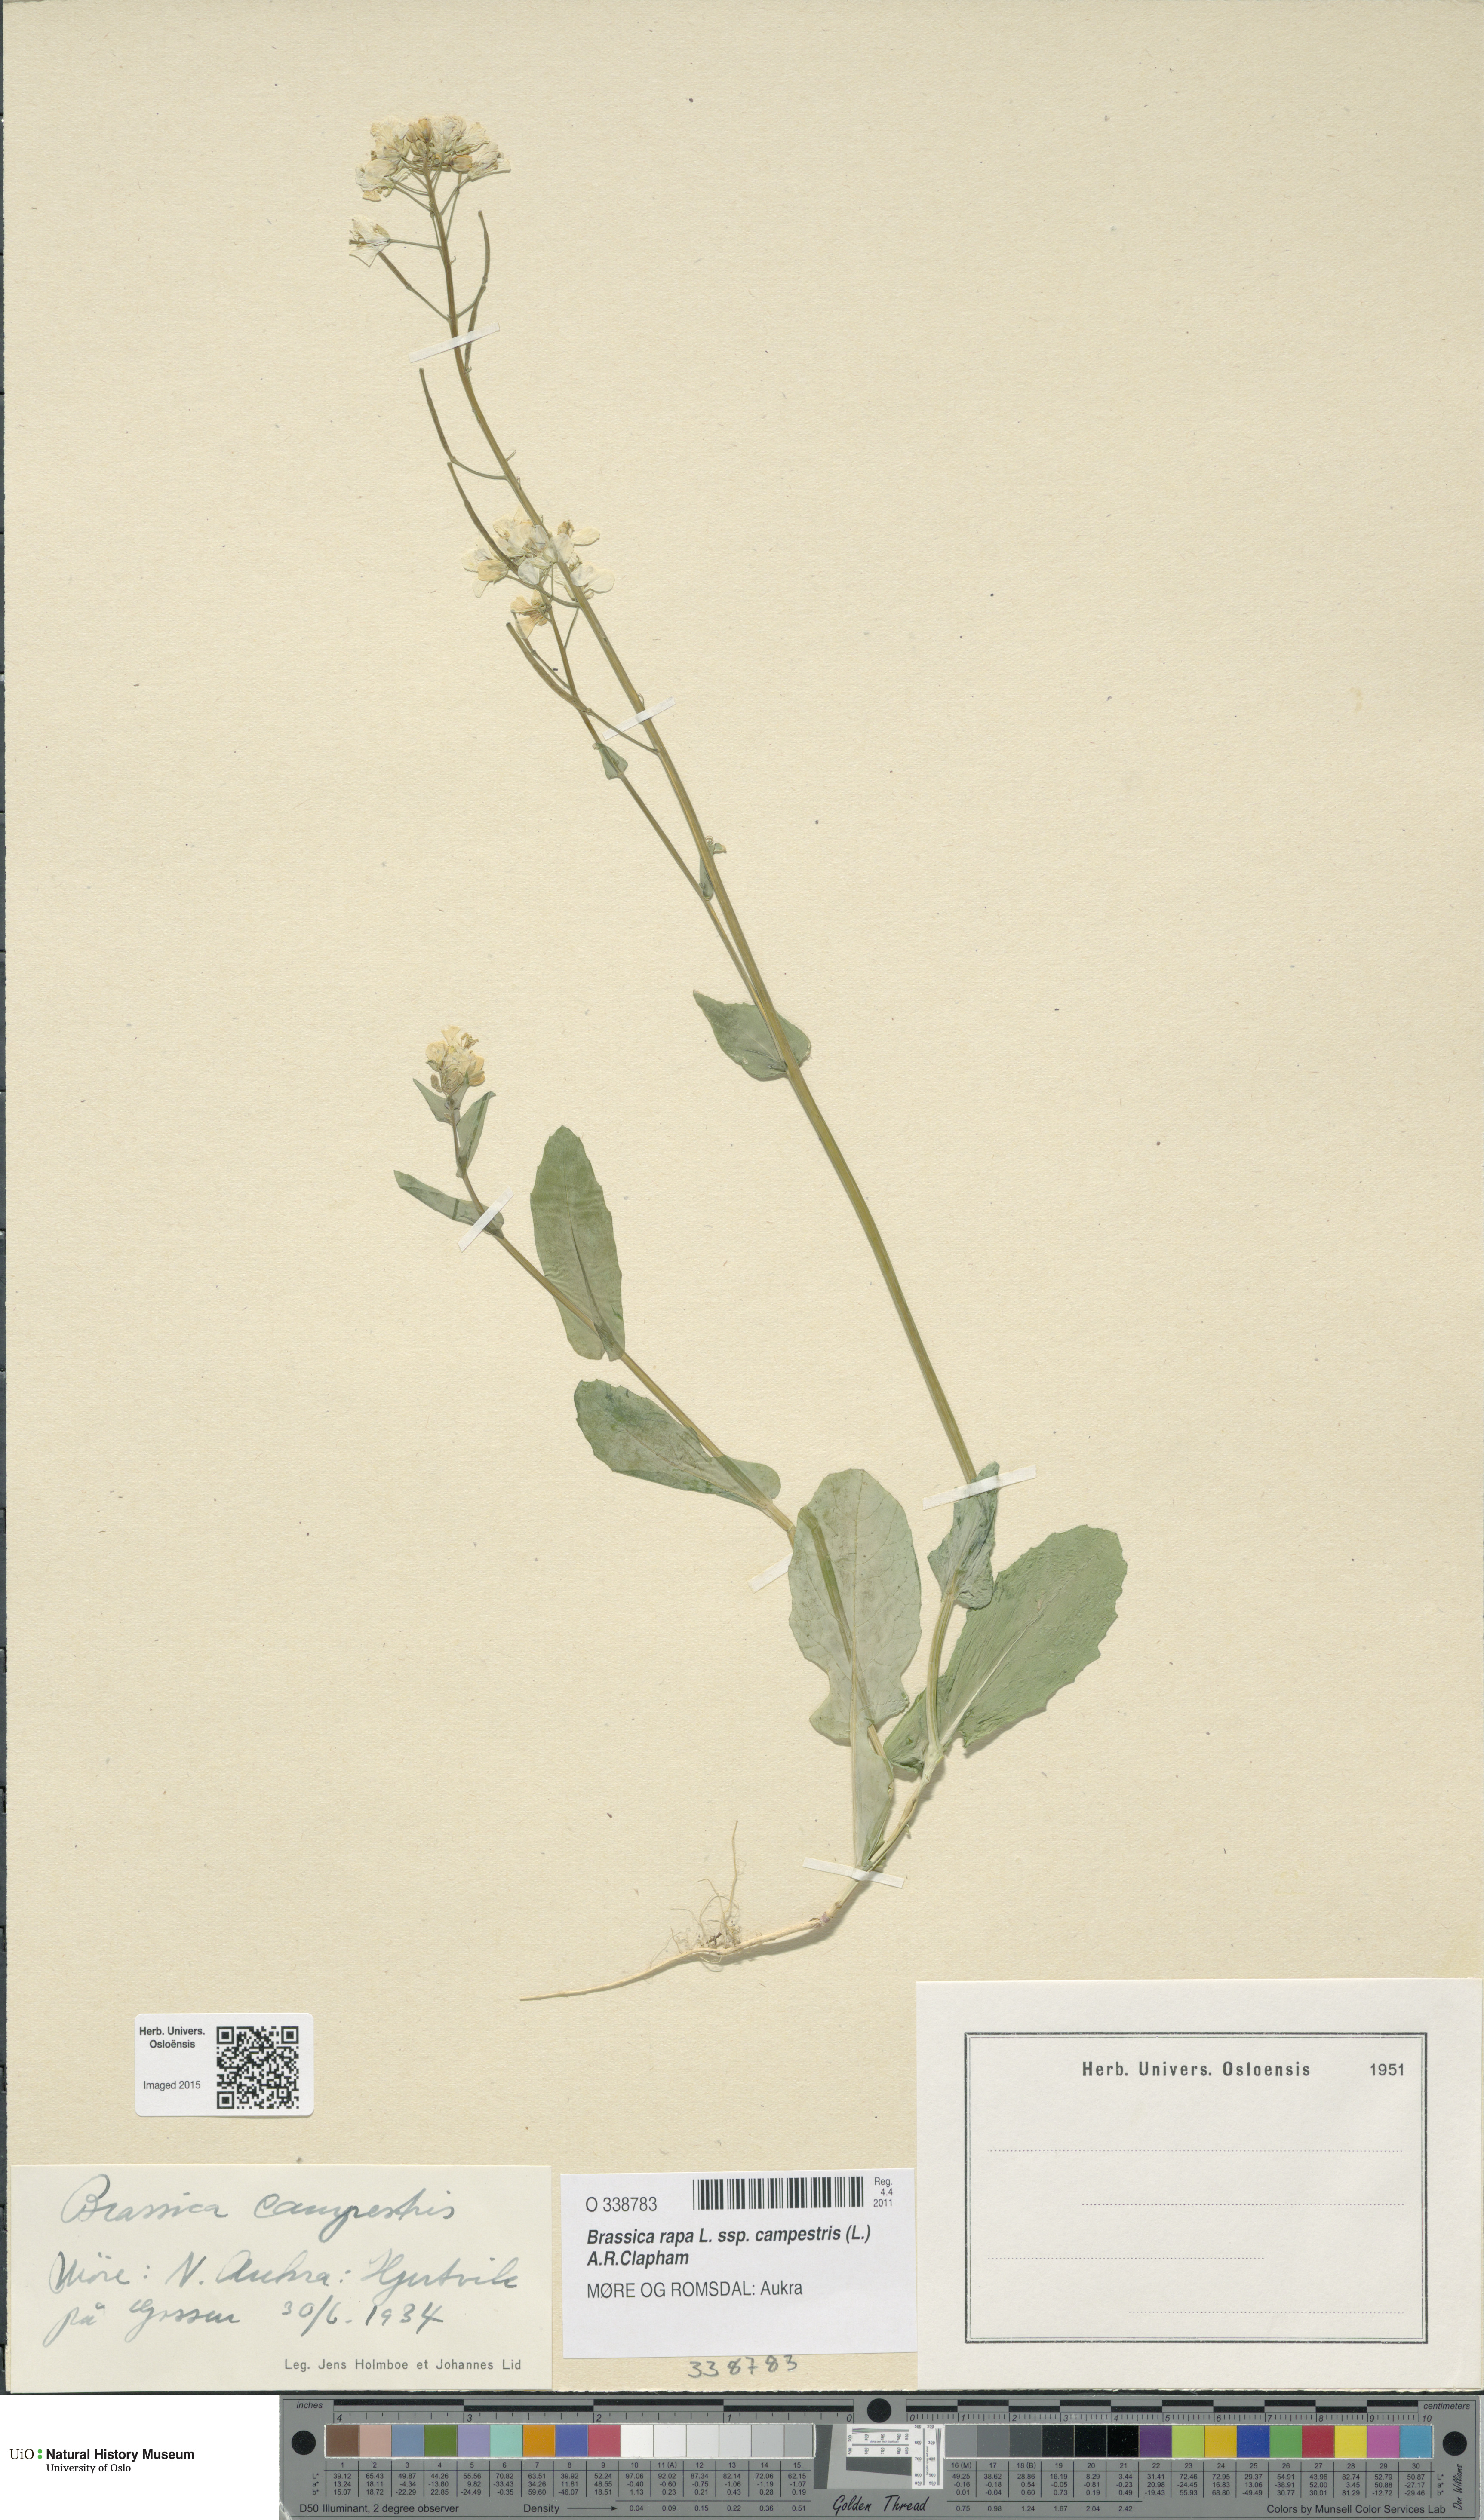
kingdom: Plantae
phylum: Tracheophyta
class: Magnoliopsida
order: Brassicales
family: Brassicaceae
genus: Brassica
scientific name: Brassica rapa
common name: Field mustard
